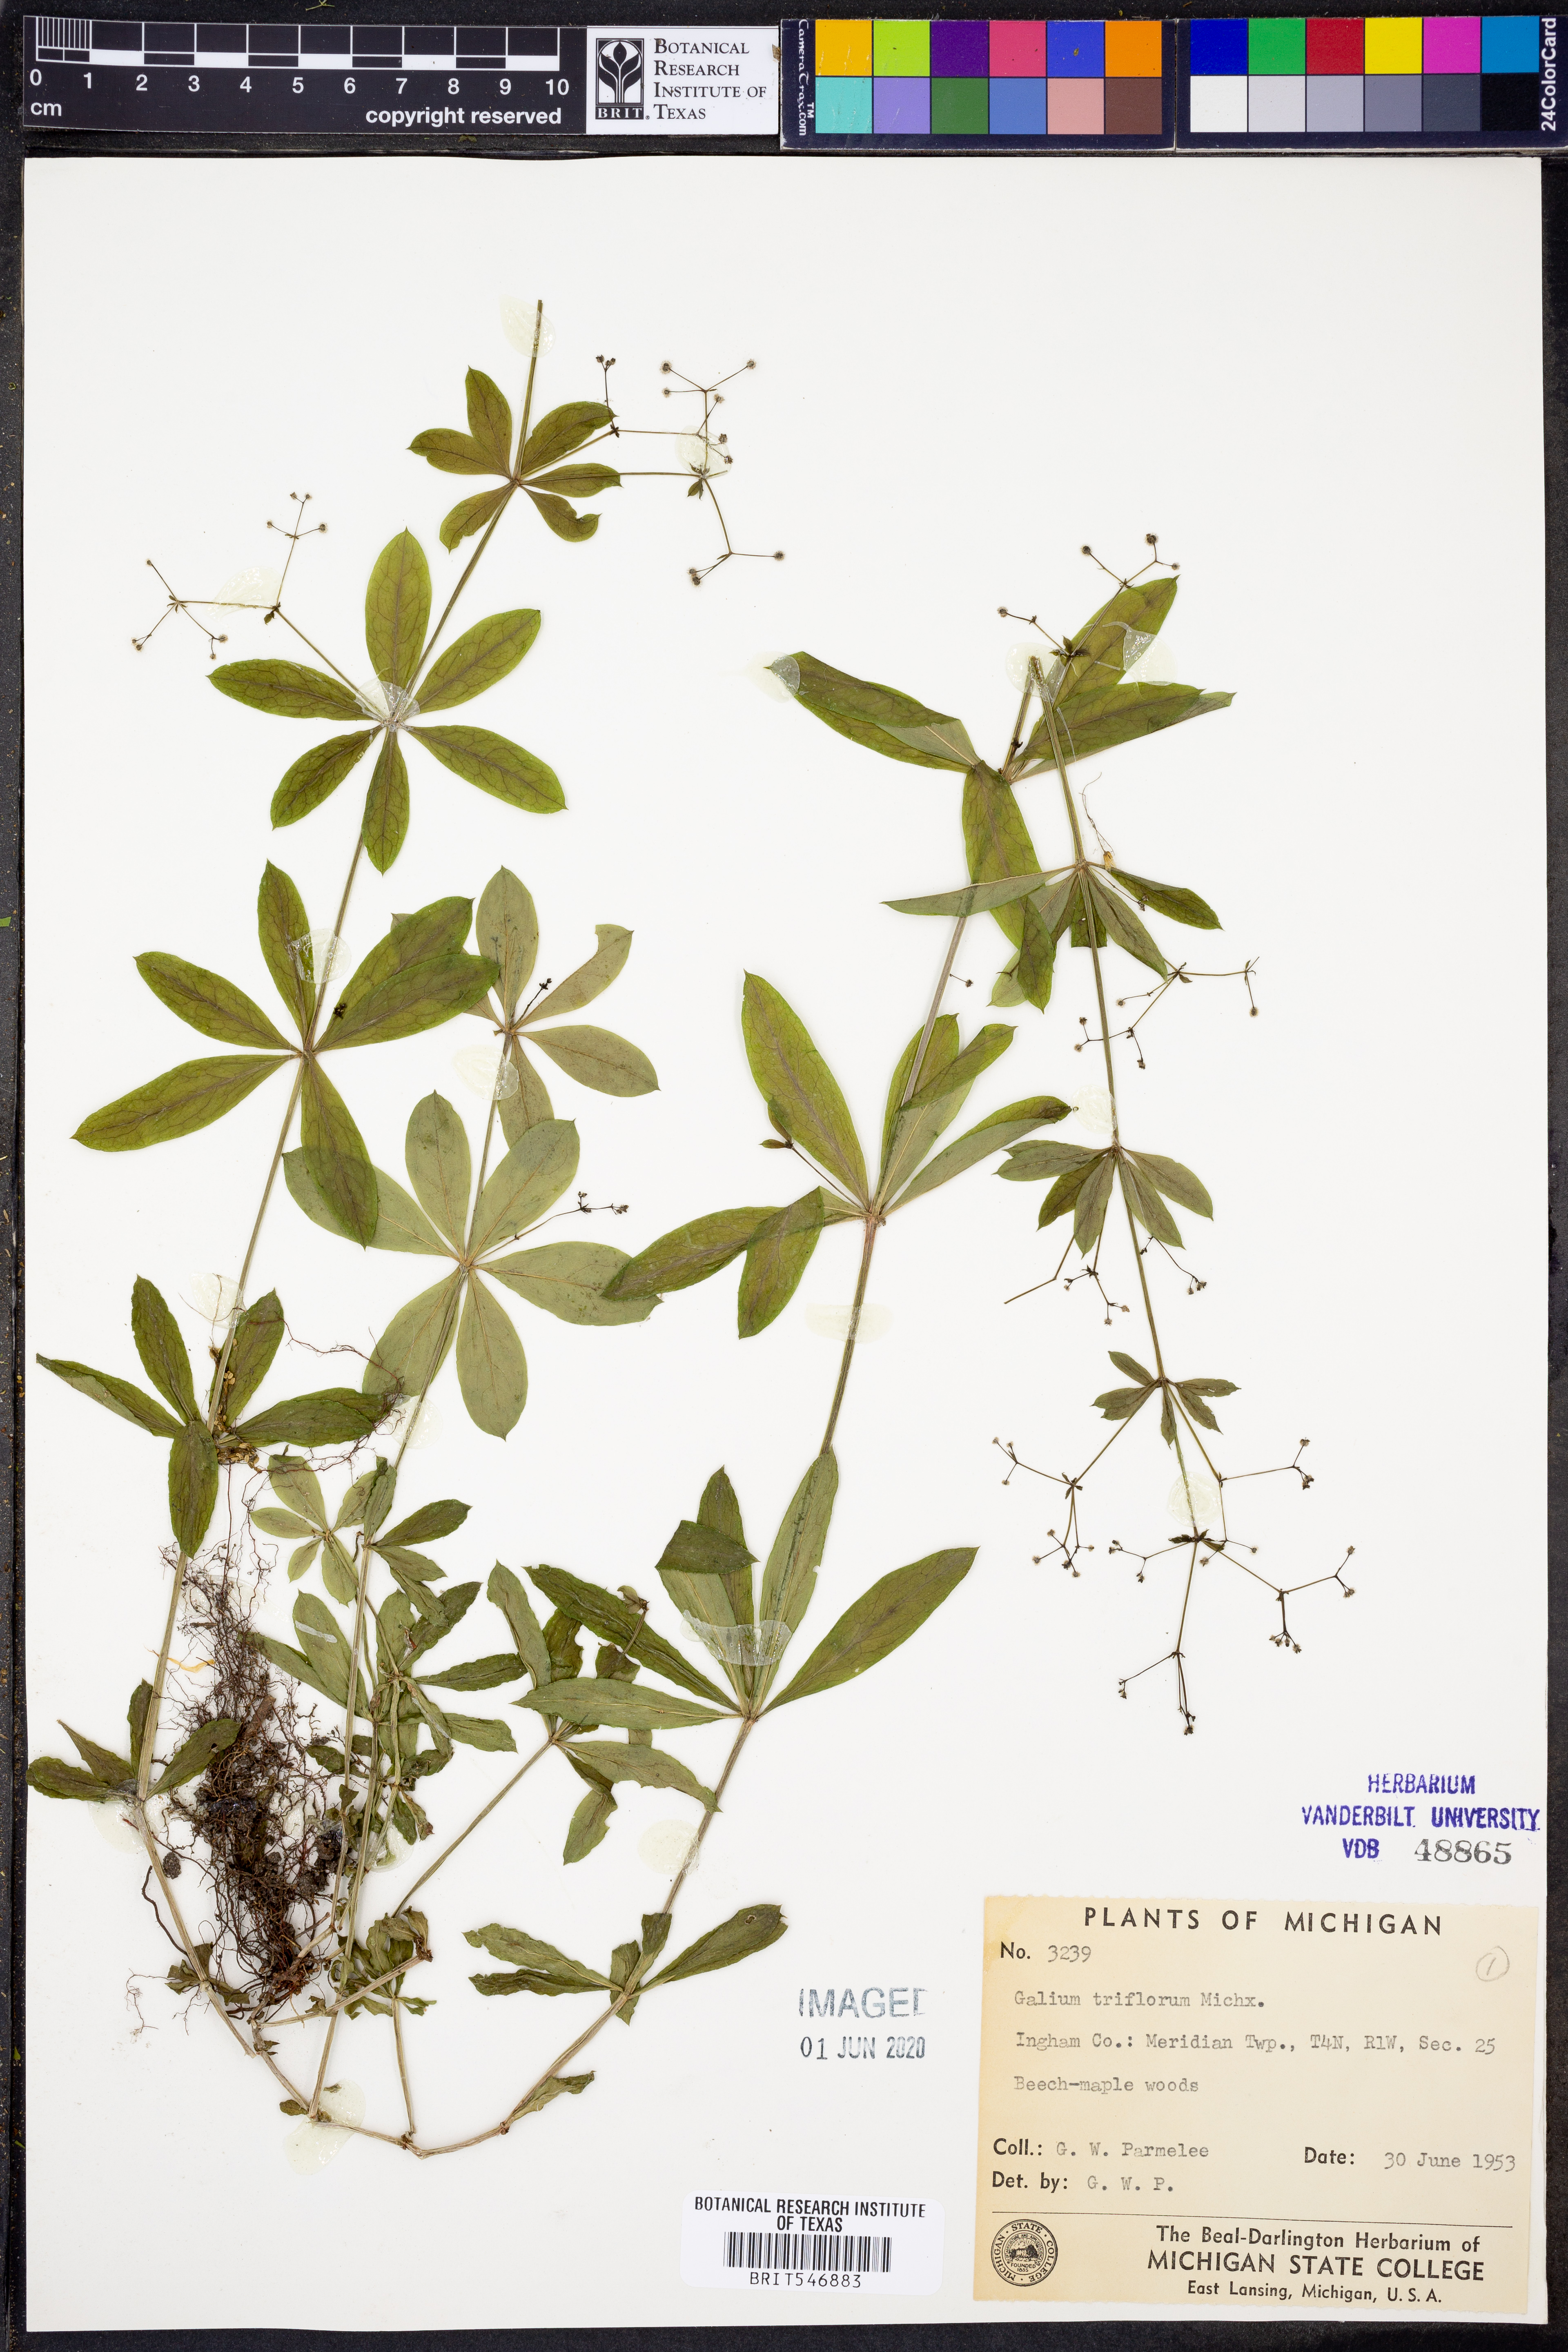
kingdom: Plantae
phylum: Tracheophyta
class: Magnoliopsida
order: Gentianales
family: Rubiaceae
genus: Galium
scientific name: Galium triflorum
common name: Fragrant bedstraw
